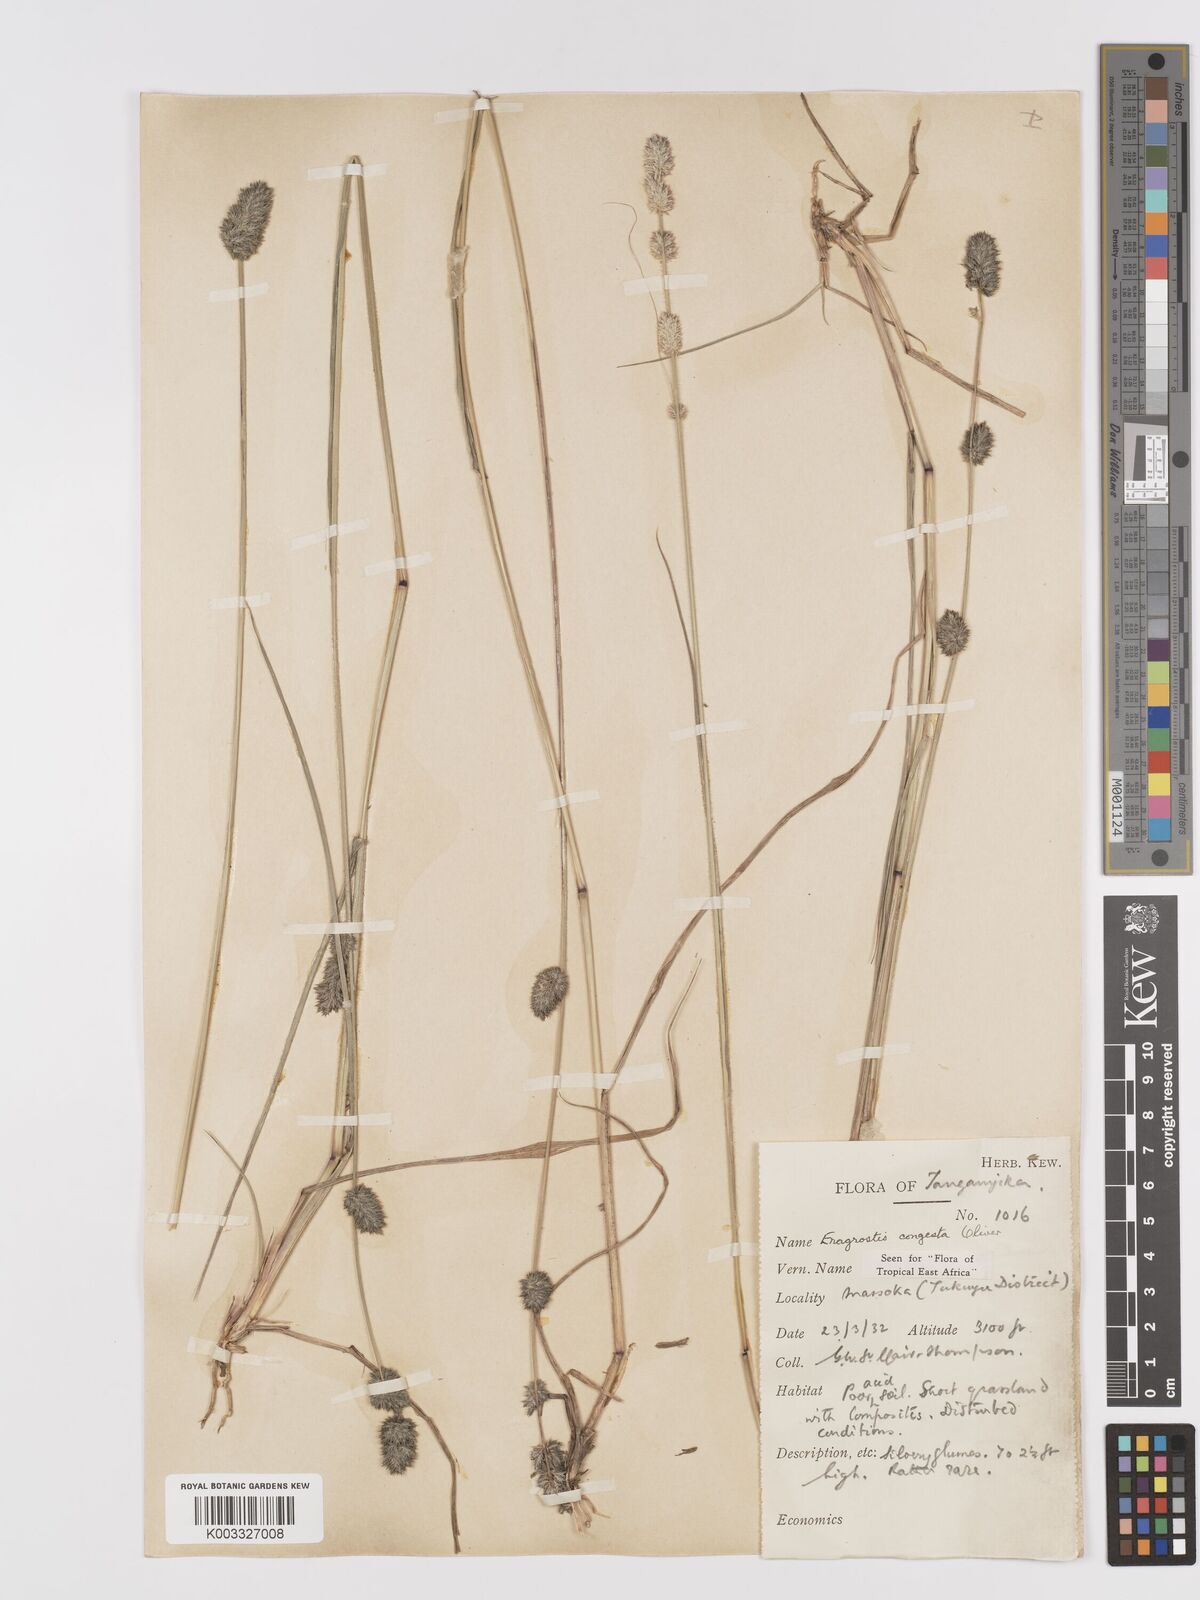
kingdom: Plantae
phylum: Tracheophyta
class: Liliopsida
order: Poales
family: Poaceae
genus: Eragrostis
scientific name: Eragrostis congesta
